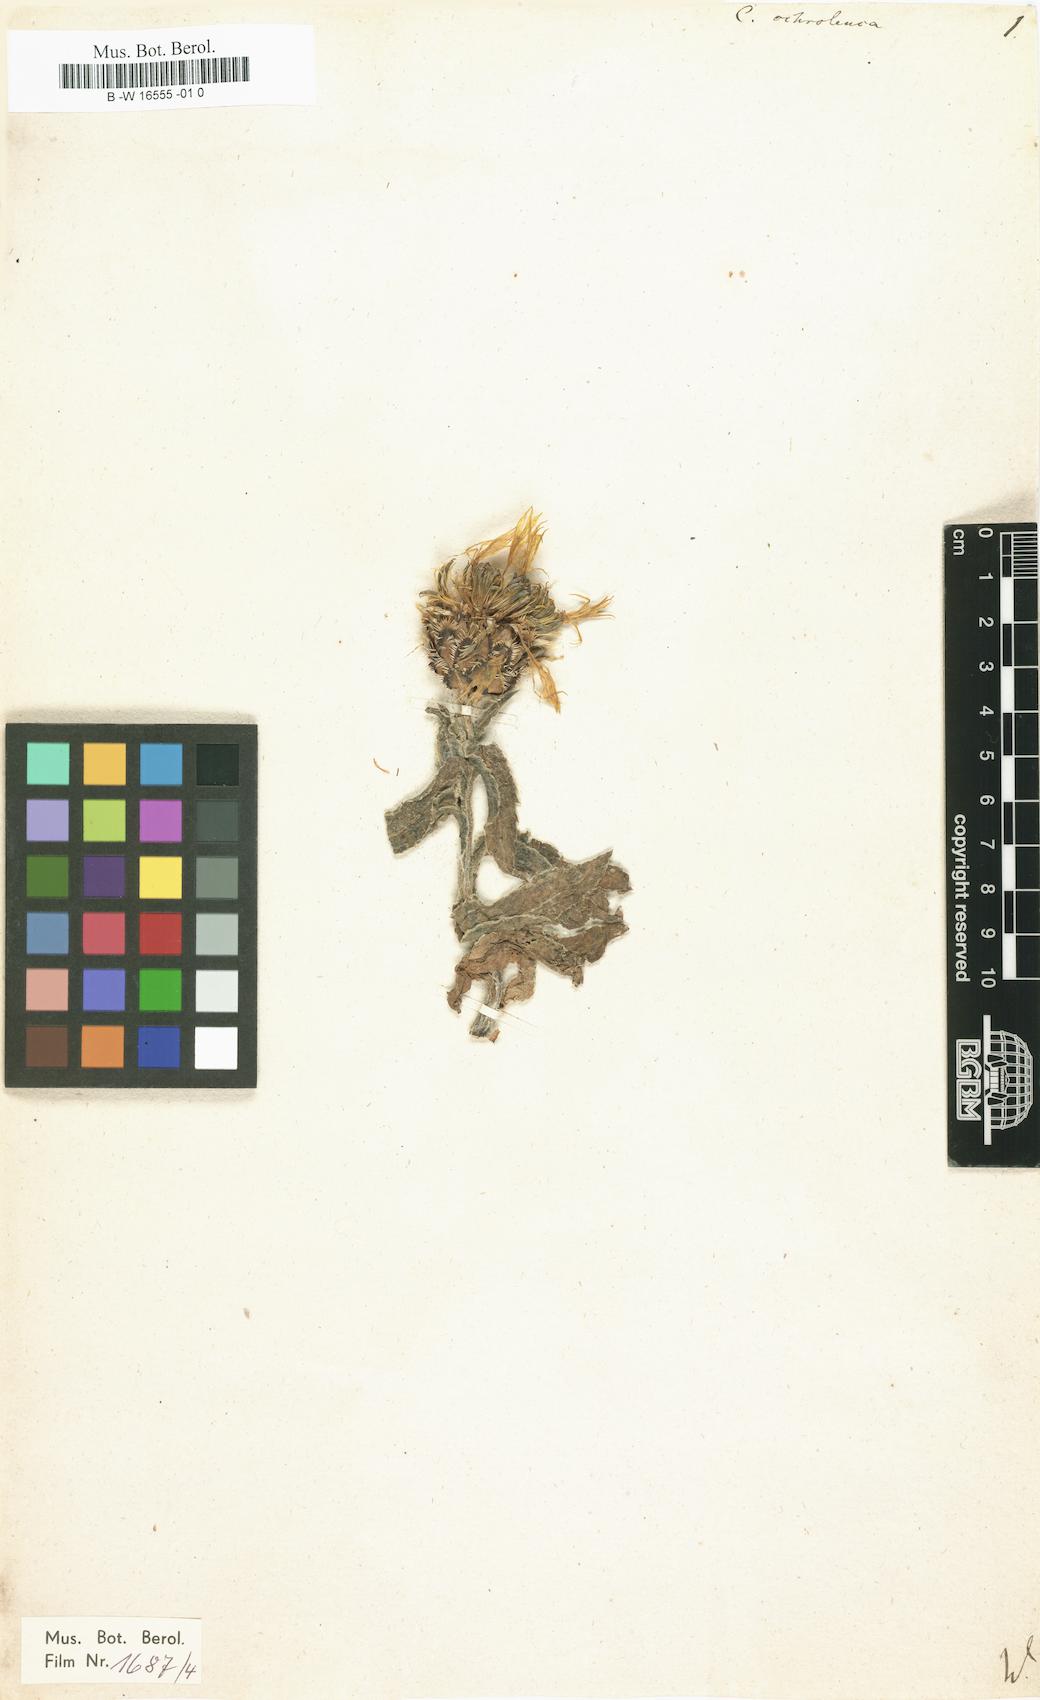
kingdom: Plantae
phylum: Tracheophyta
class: Magnoliopsida
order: Asterales
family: Asteraceae
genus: Centaurea
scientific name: Centaurea cheiranthifolia
